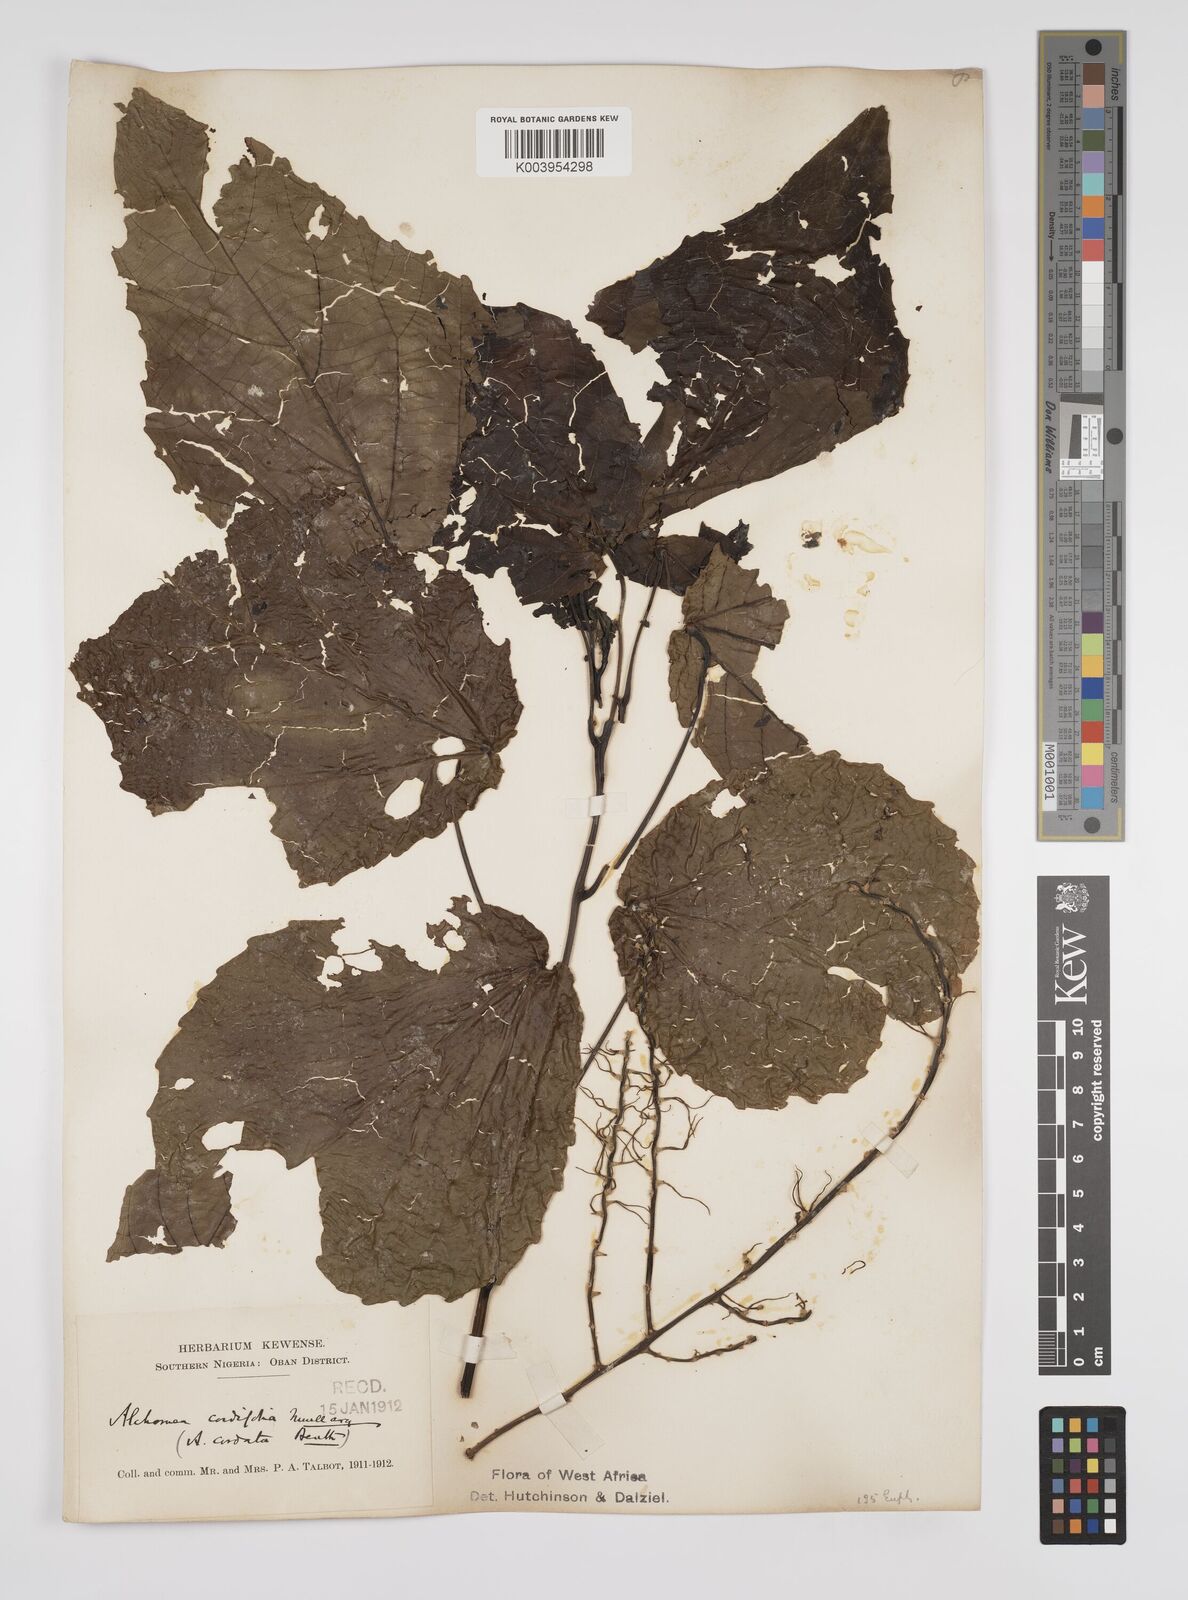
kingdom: Plantae
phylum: Tracheophyta
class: Magnoliopsida
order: Malpighiales
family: Euphorbiaceae
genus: Alchornea
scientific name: Alchornea cordifolia
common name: Christmasbush
